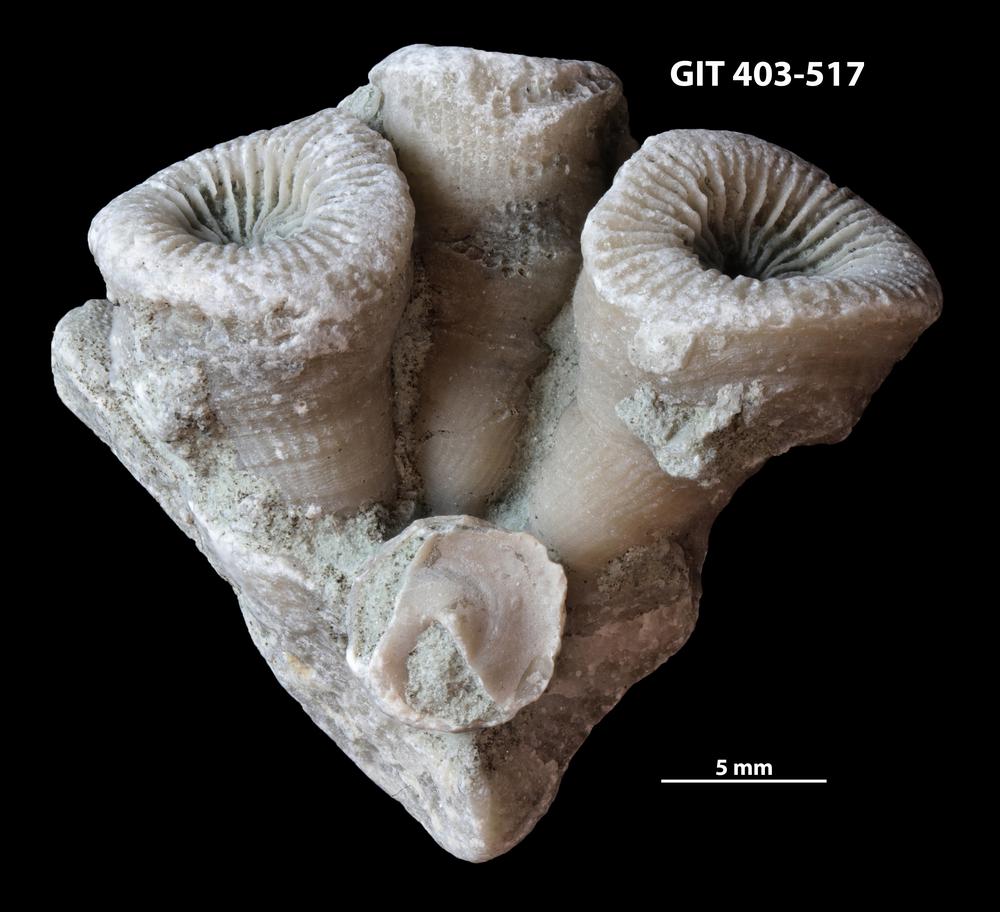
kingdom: Animalia
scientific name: Animalia
